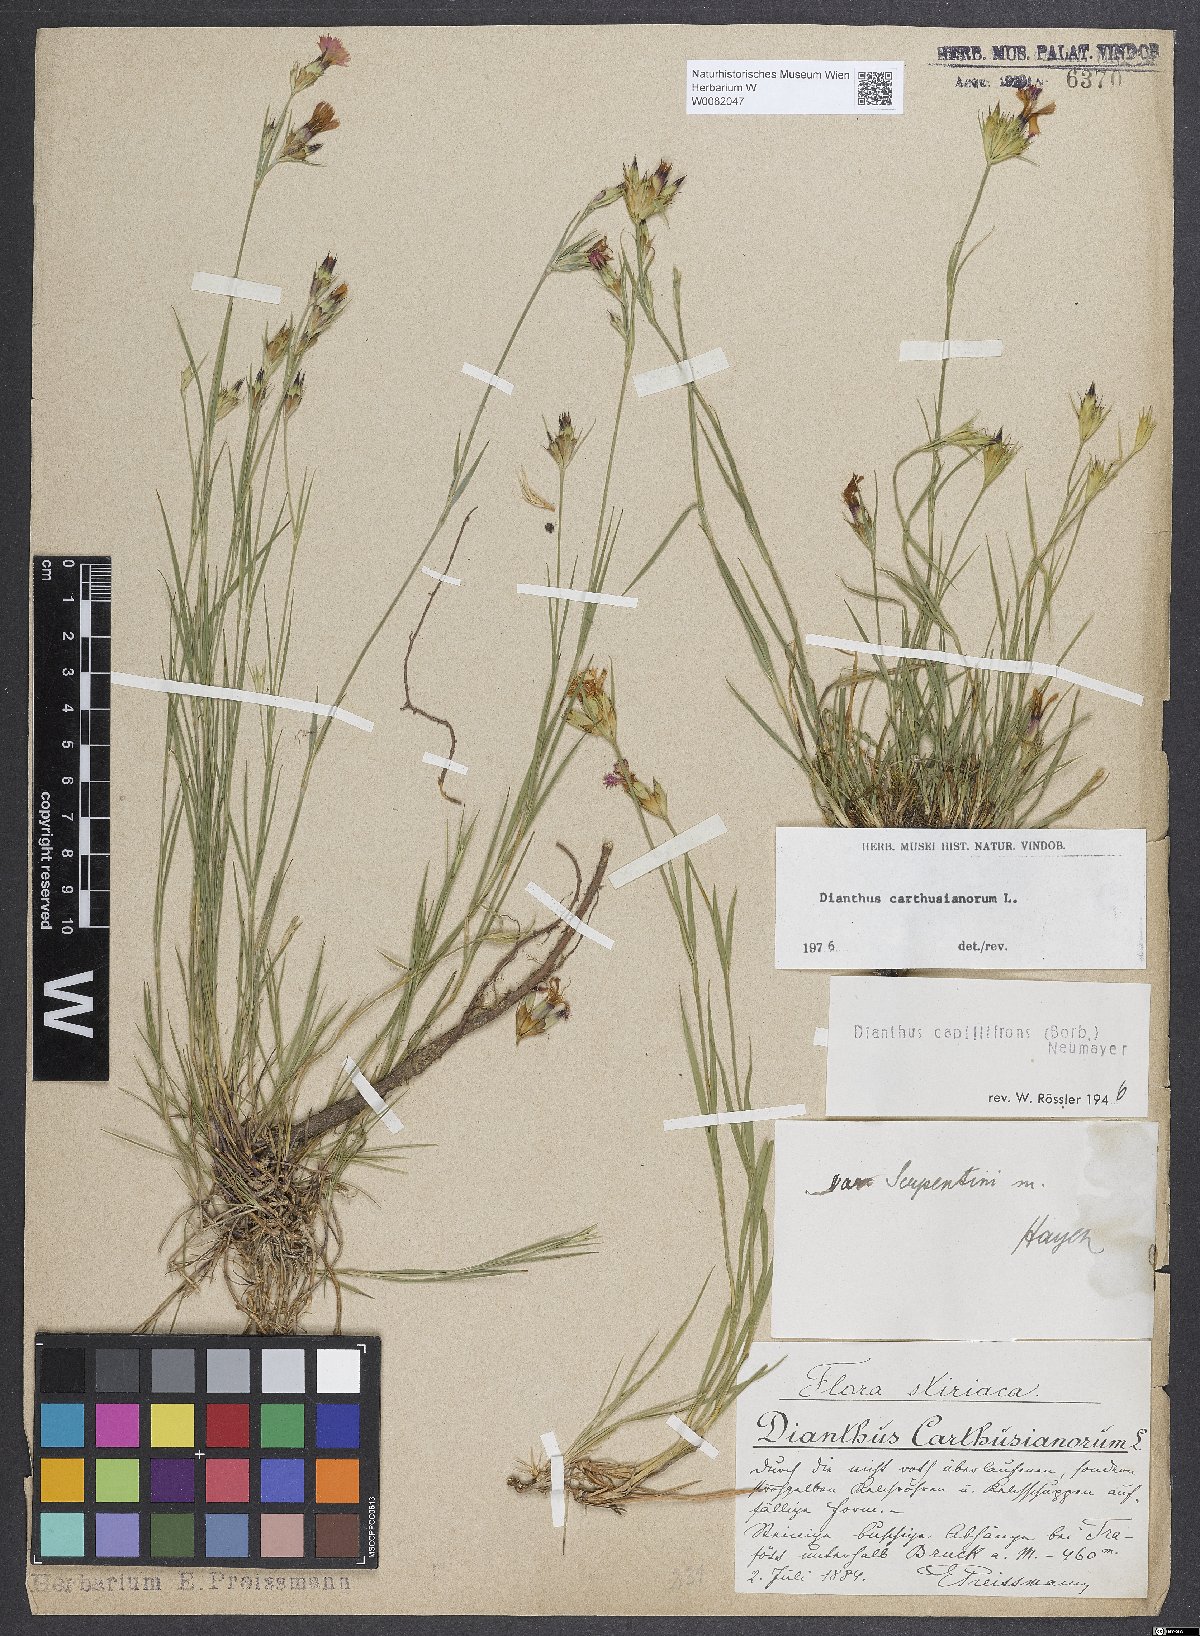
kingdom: Plantae
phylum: Tracheophyta
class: Magnoliopsida
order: Caryophyllales
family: Caryophyllaceae
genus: Dianthus
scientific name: Dianthus carthusianorum
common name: Carthusian pink
